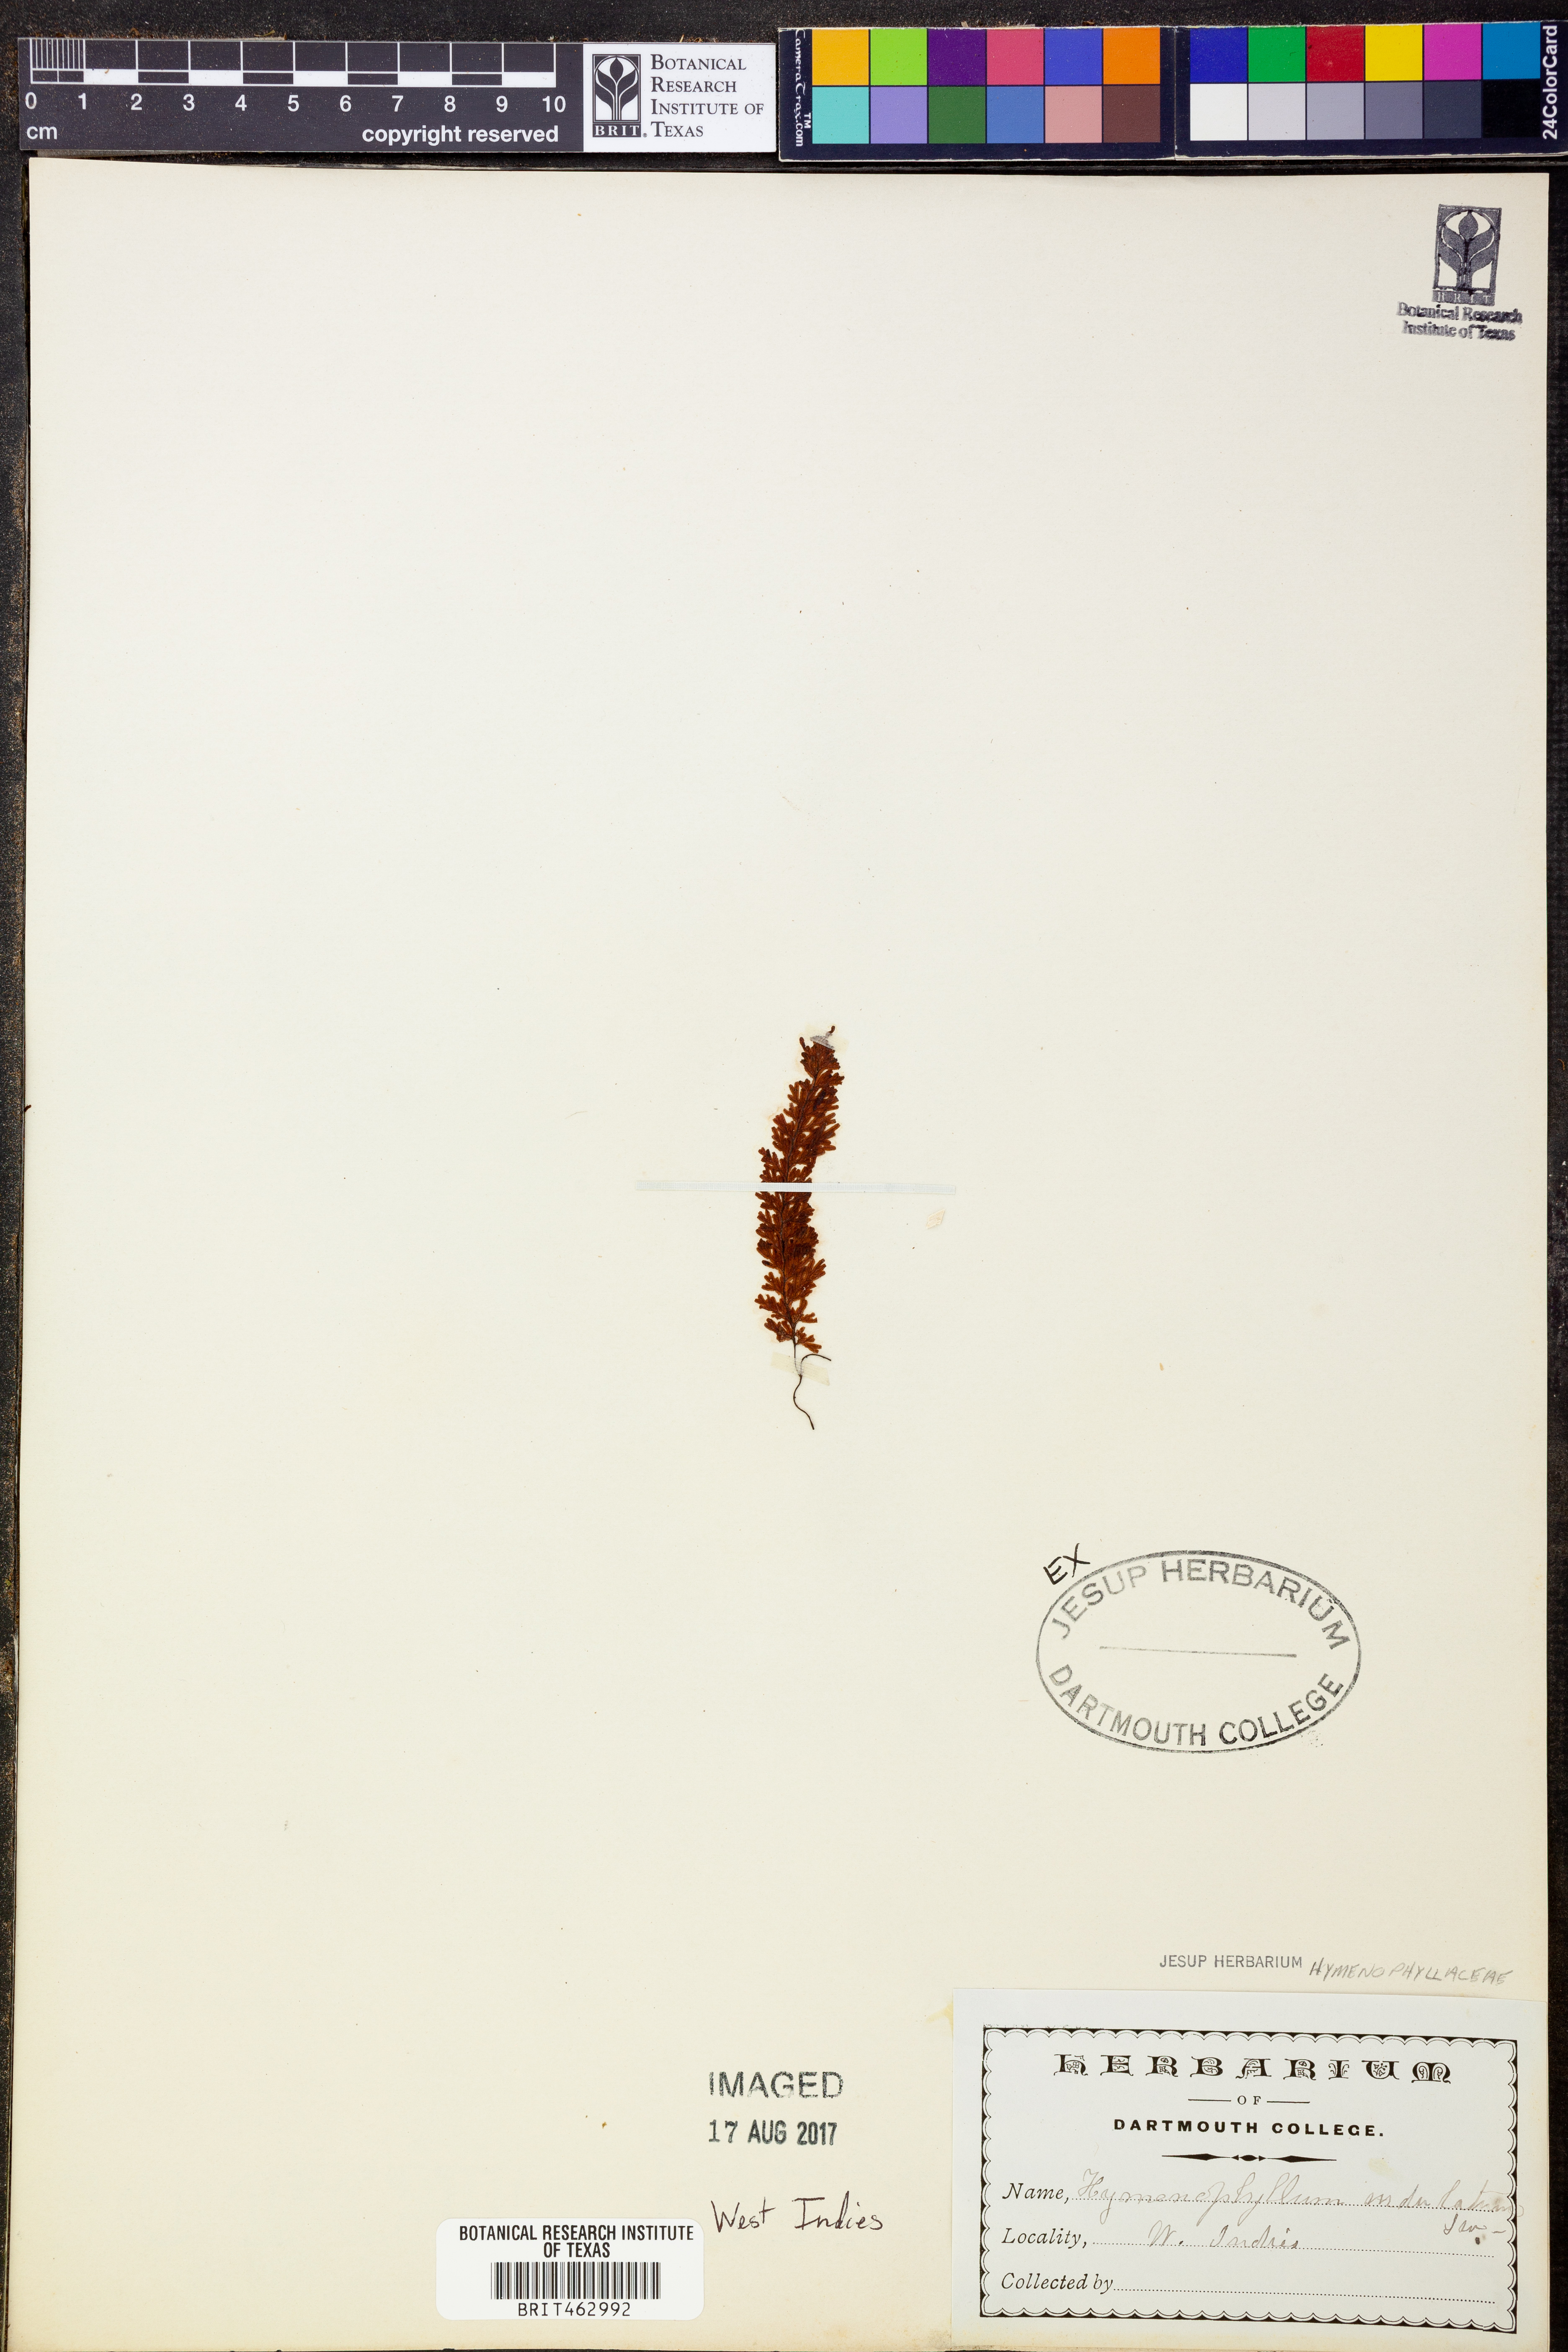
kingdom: Plantae
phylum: Tracheophyta
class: Polypodiopsida
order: Hymenophyllales
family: Hymenophyllaceae
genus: Hymenophyllum
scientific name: Hymenophyllum undulatum
